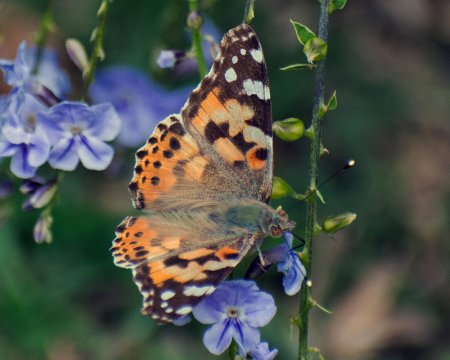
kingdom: Animalia
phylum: Arthropoda
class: Insecta
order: Lepidoptera
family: Nymphalidae
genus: Vanessa
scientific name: Vanessa cardui
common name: Painted Lady
